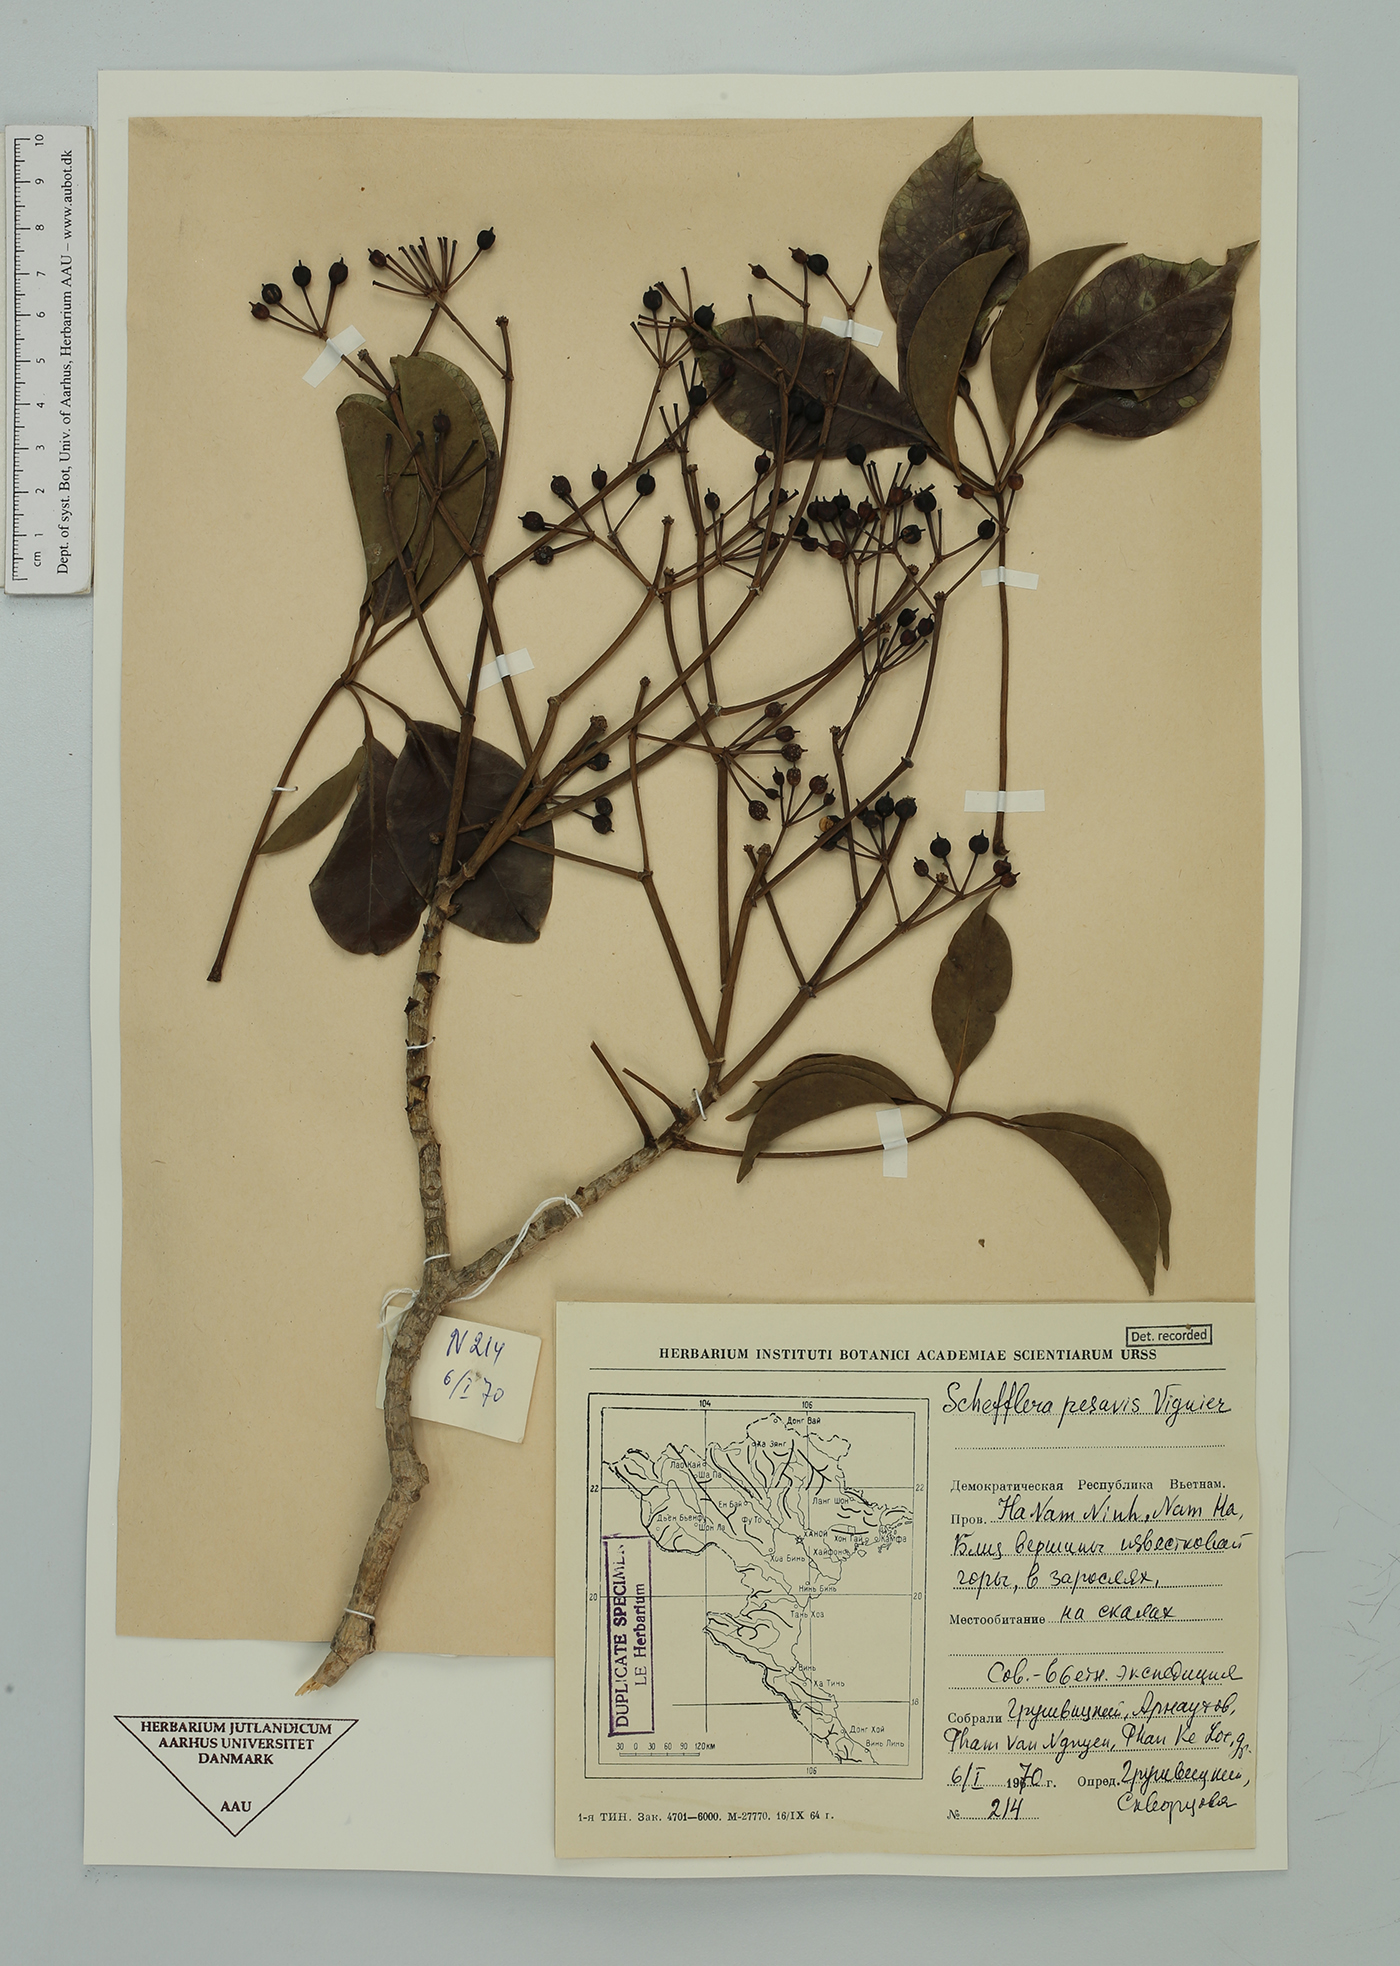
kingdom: Plantae
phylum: Tracheophyta
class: Magnoliopsida
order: Apiales
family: Araliaceae
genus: Heptapleurum
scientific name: Heptapleurum pes-avis
